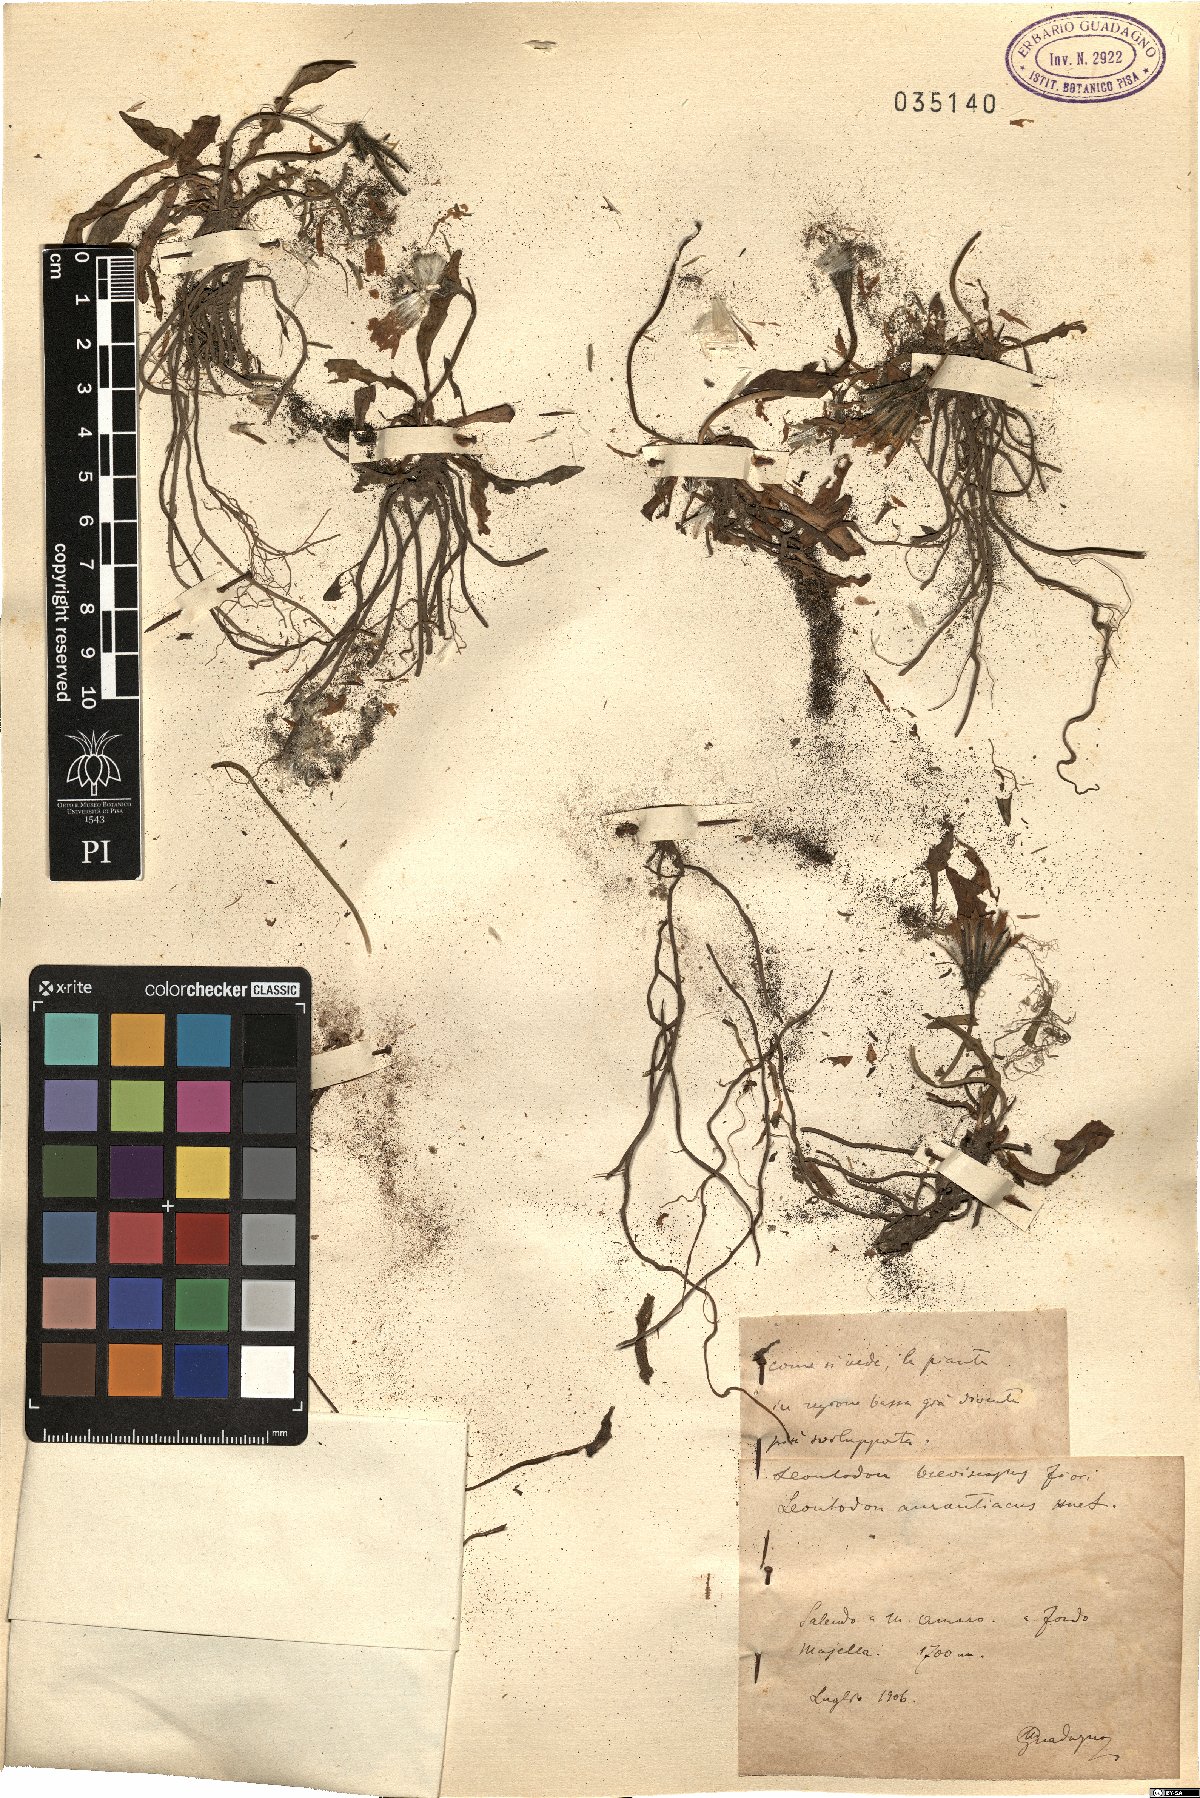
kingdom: Plantae
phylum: Tracheophyta
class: Magnoliopsida
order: Asterales
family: Asteraceae
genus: Leontodon
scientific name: Leontodon
